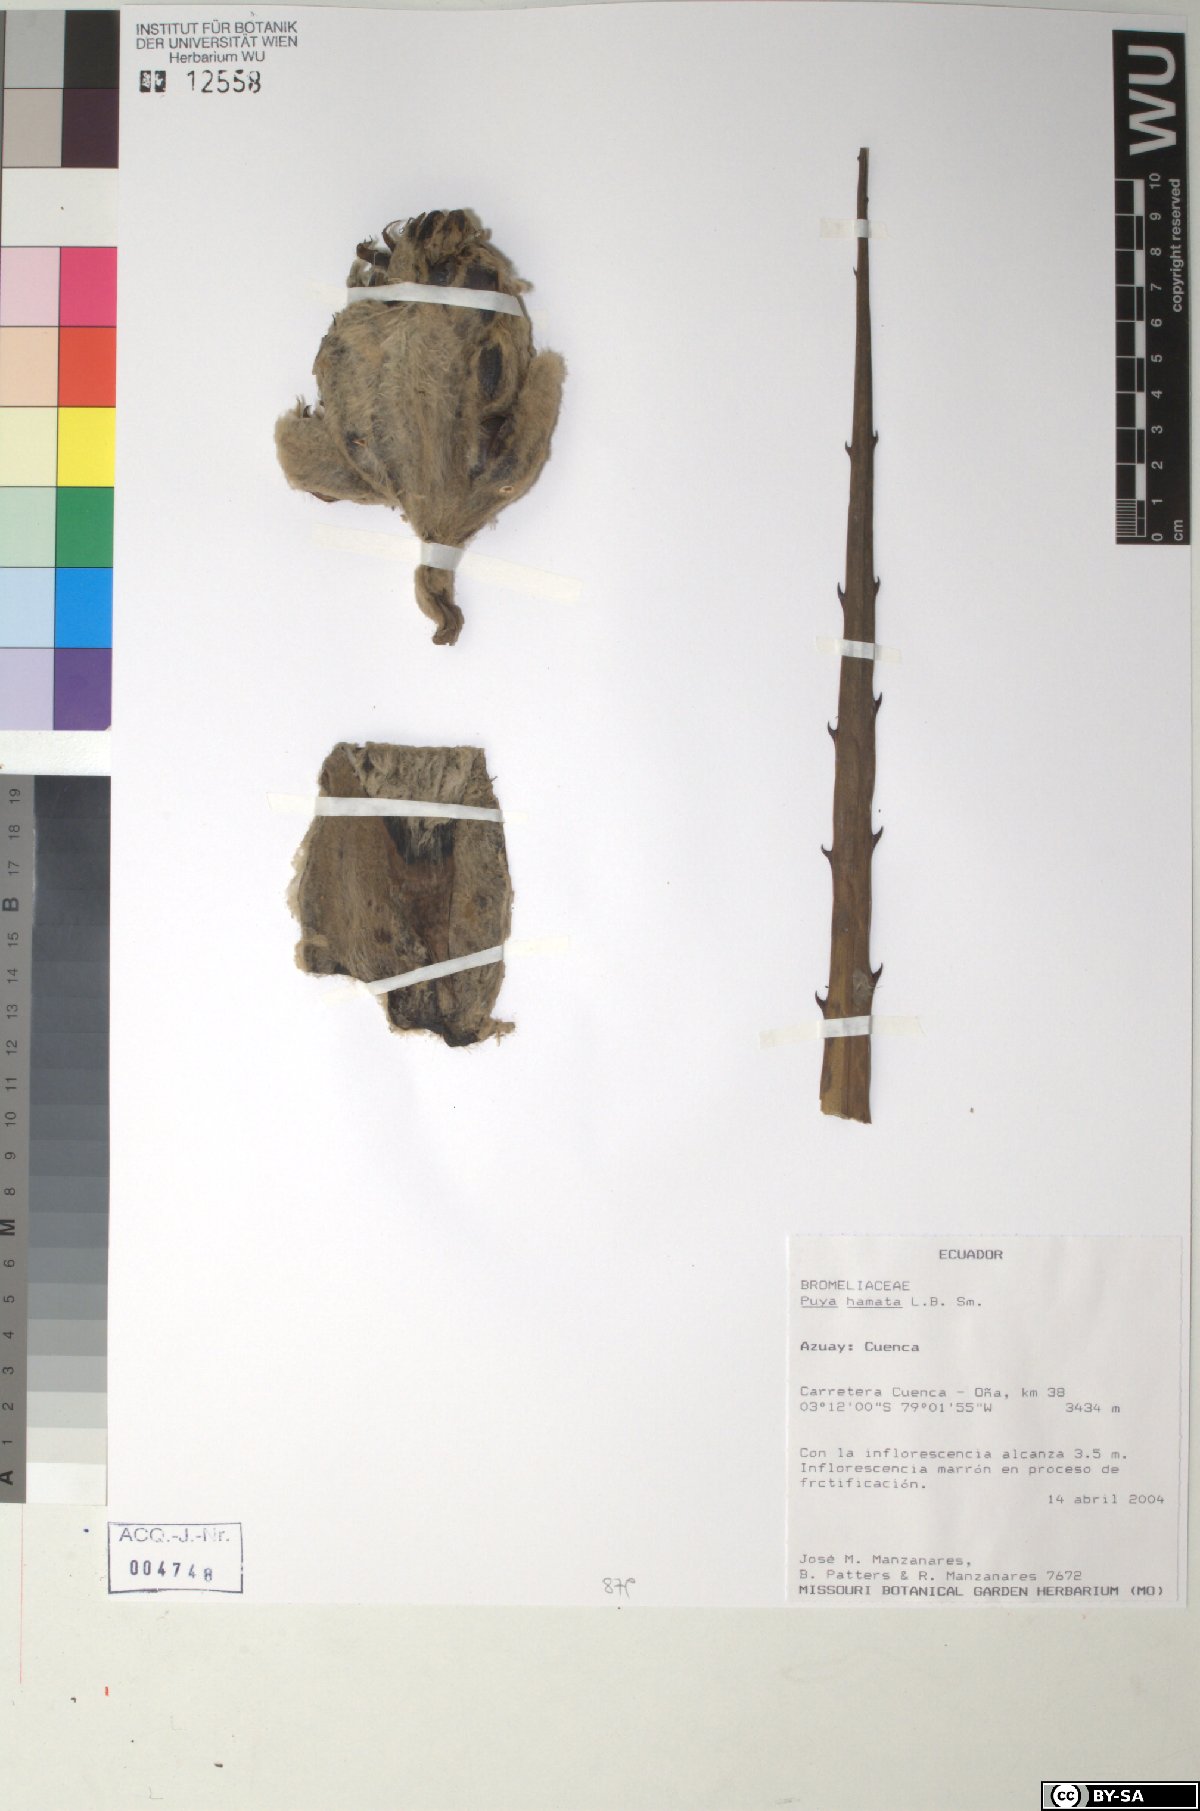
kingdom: Plantae
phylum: Tracheophyta
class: Liliopsida
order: Poales
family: Bromeliaceae
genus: Puya
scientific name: Puya hamata
